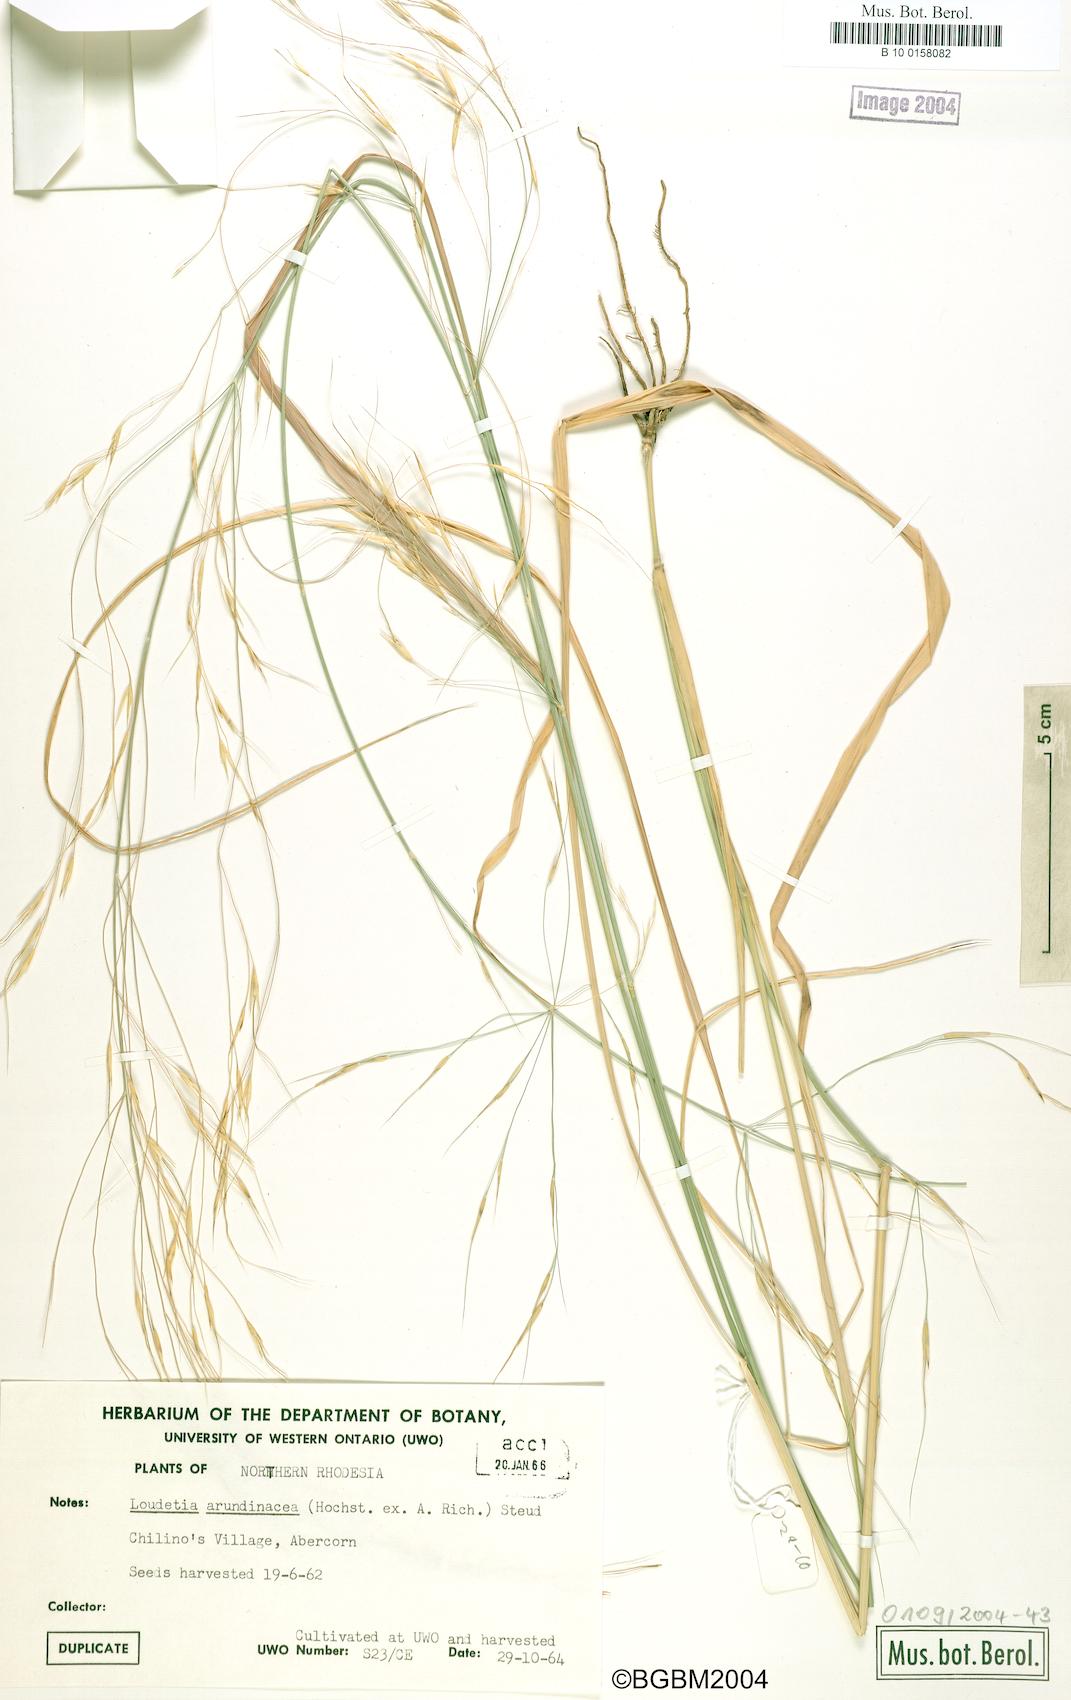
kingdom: Plantae
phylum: Tracheophyta
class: Liliopsida
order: Poales
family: Poaceae
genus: Loudetia
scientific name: Loudetia arundinacea
